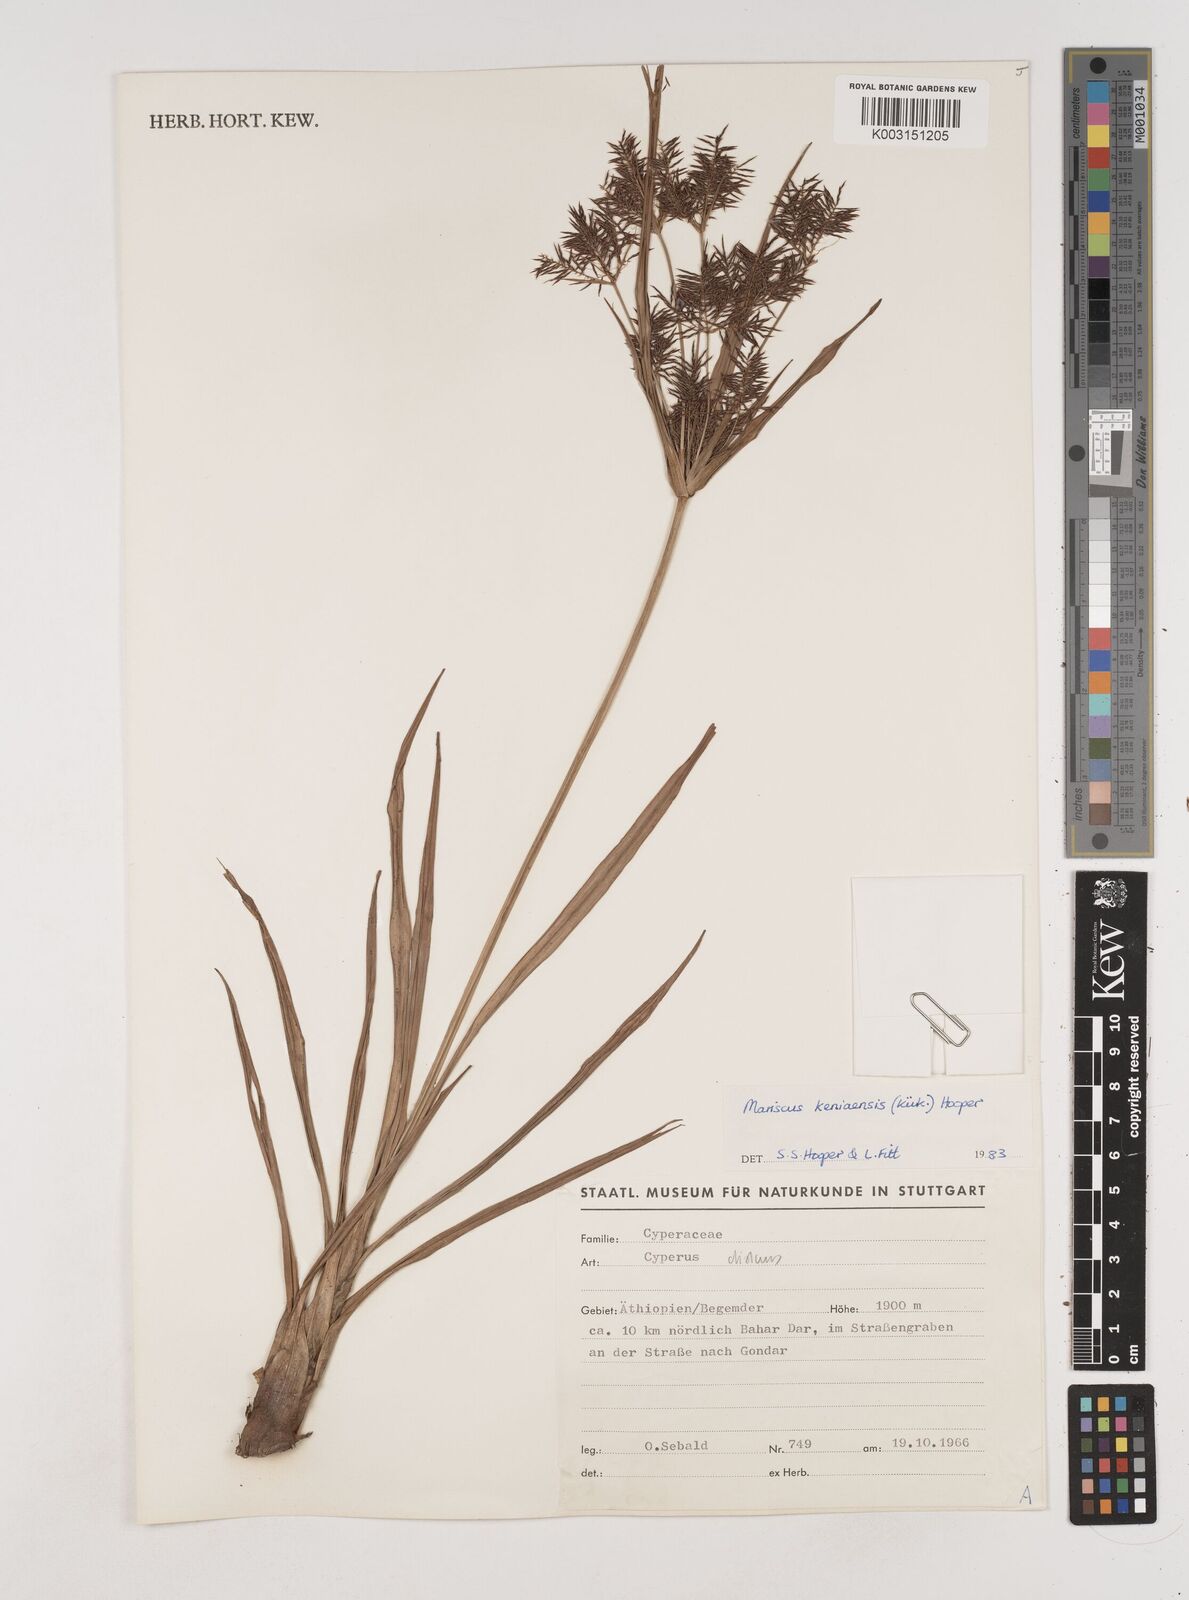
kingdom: Plantae
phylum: Tracheophyta
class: Liliopsida
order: Poales
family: Cyperaceae
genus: Cyperus
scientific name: Cyperus distans
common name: Slender cyperus
